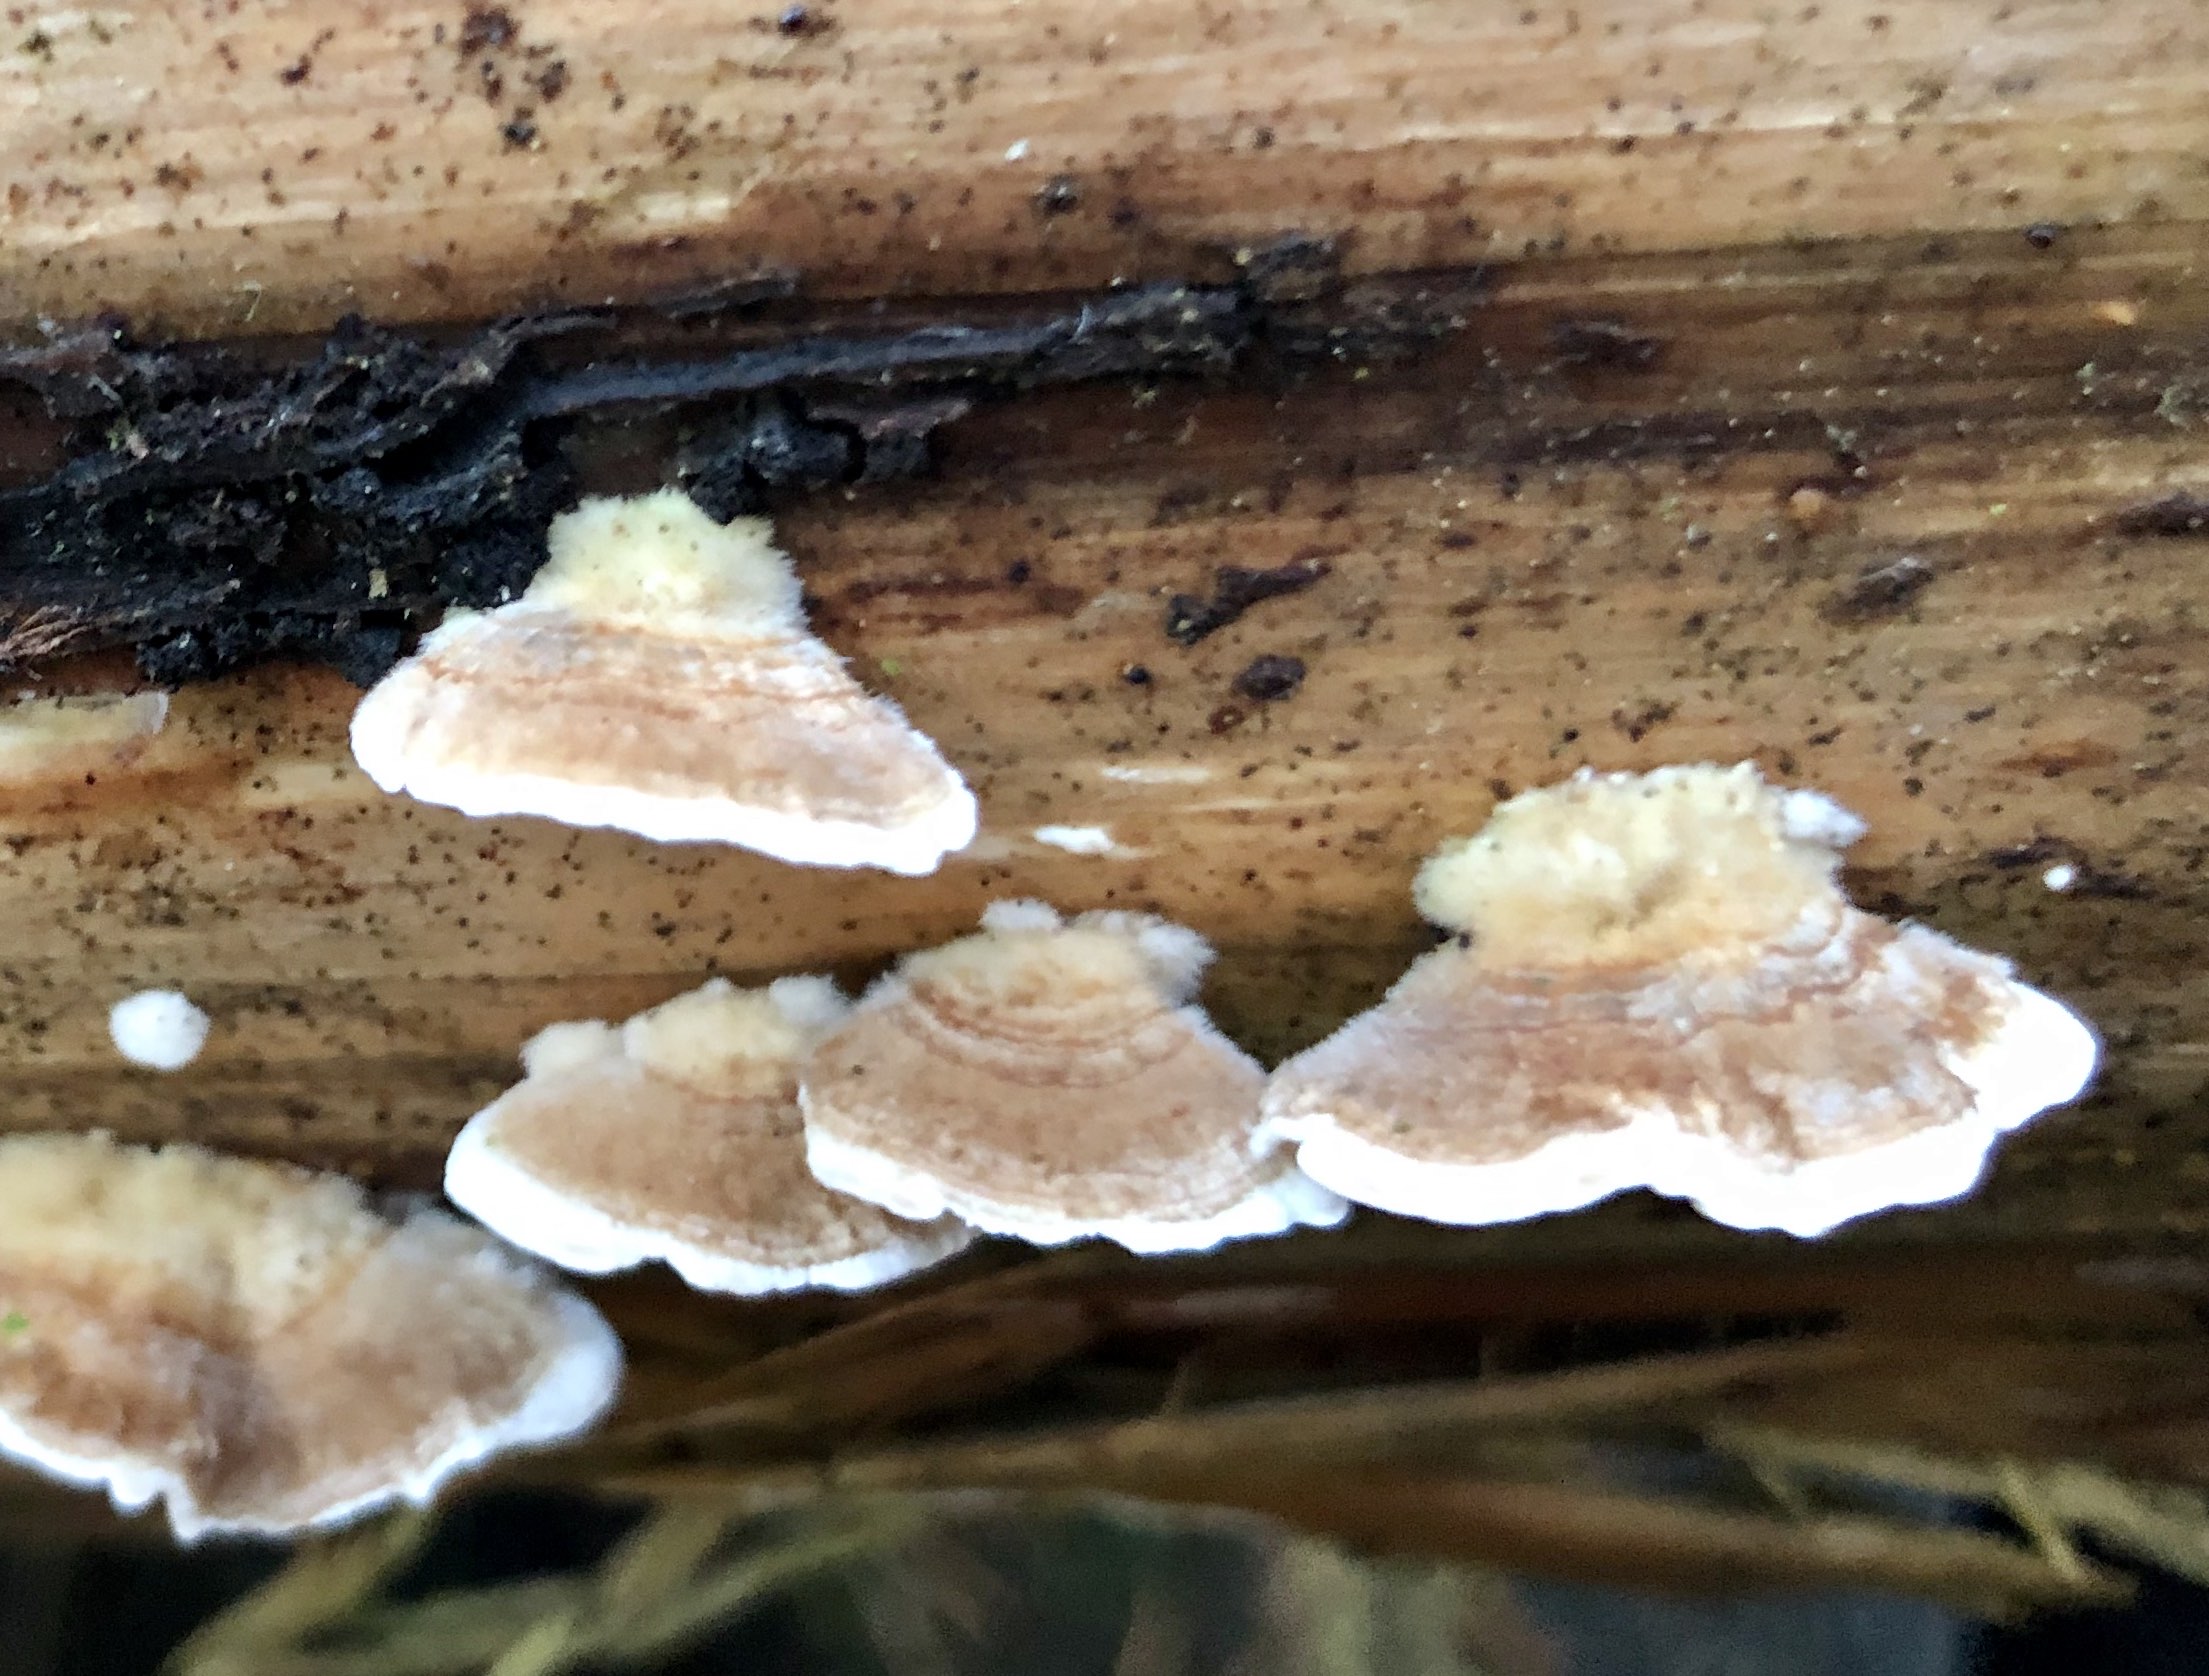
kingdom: Fungi
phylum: Basidiomycota
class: Agaricomycetes
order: Polyporales
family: Polyporaceae
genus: Trametes
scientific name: Trametes hirsuta
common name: håret læderporesvamp
